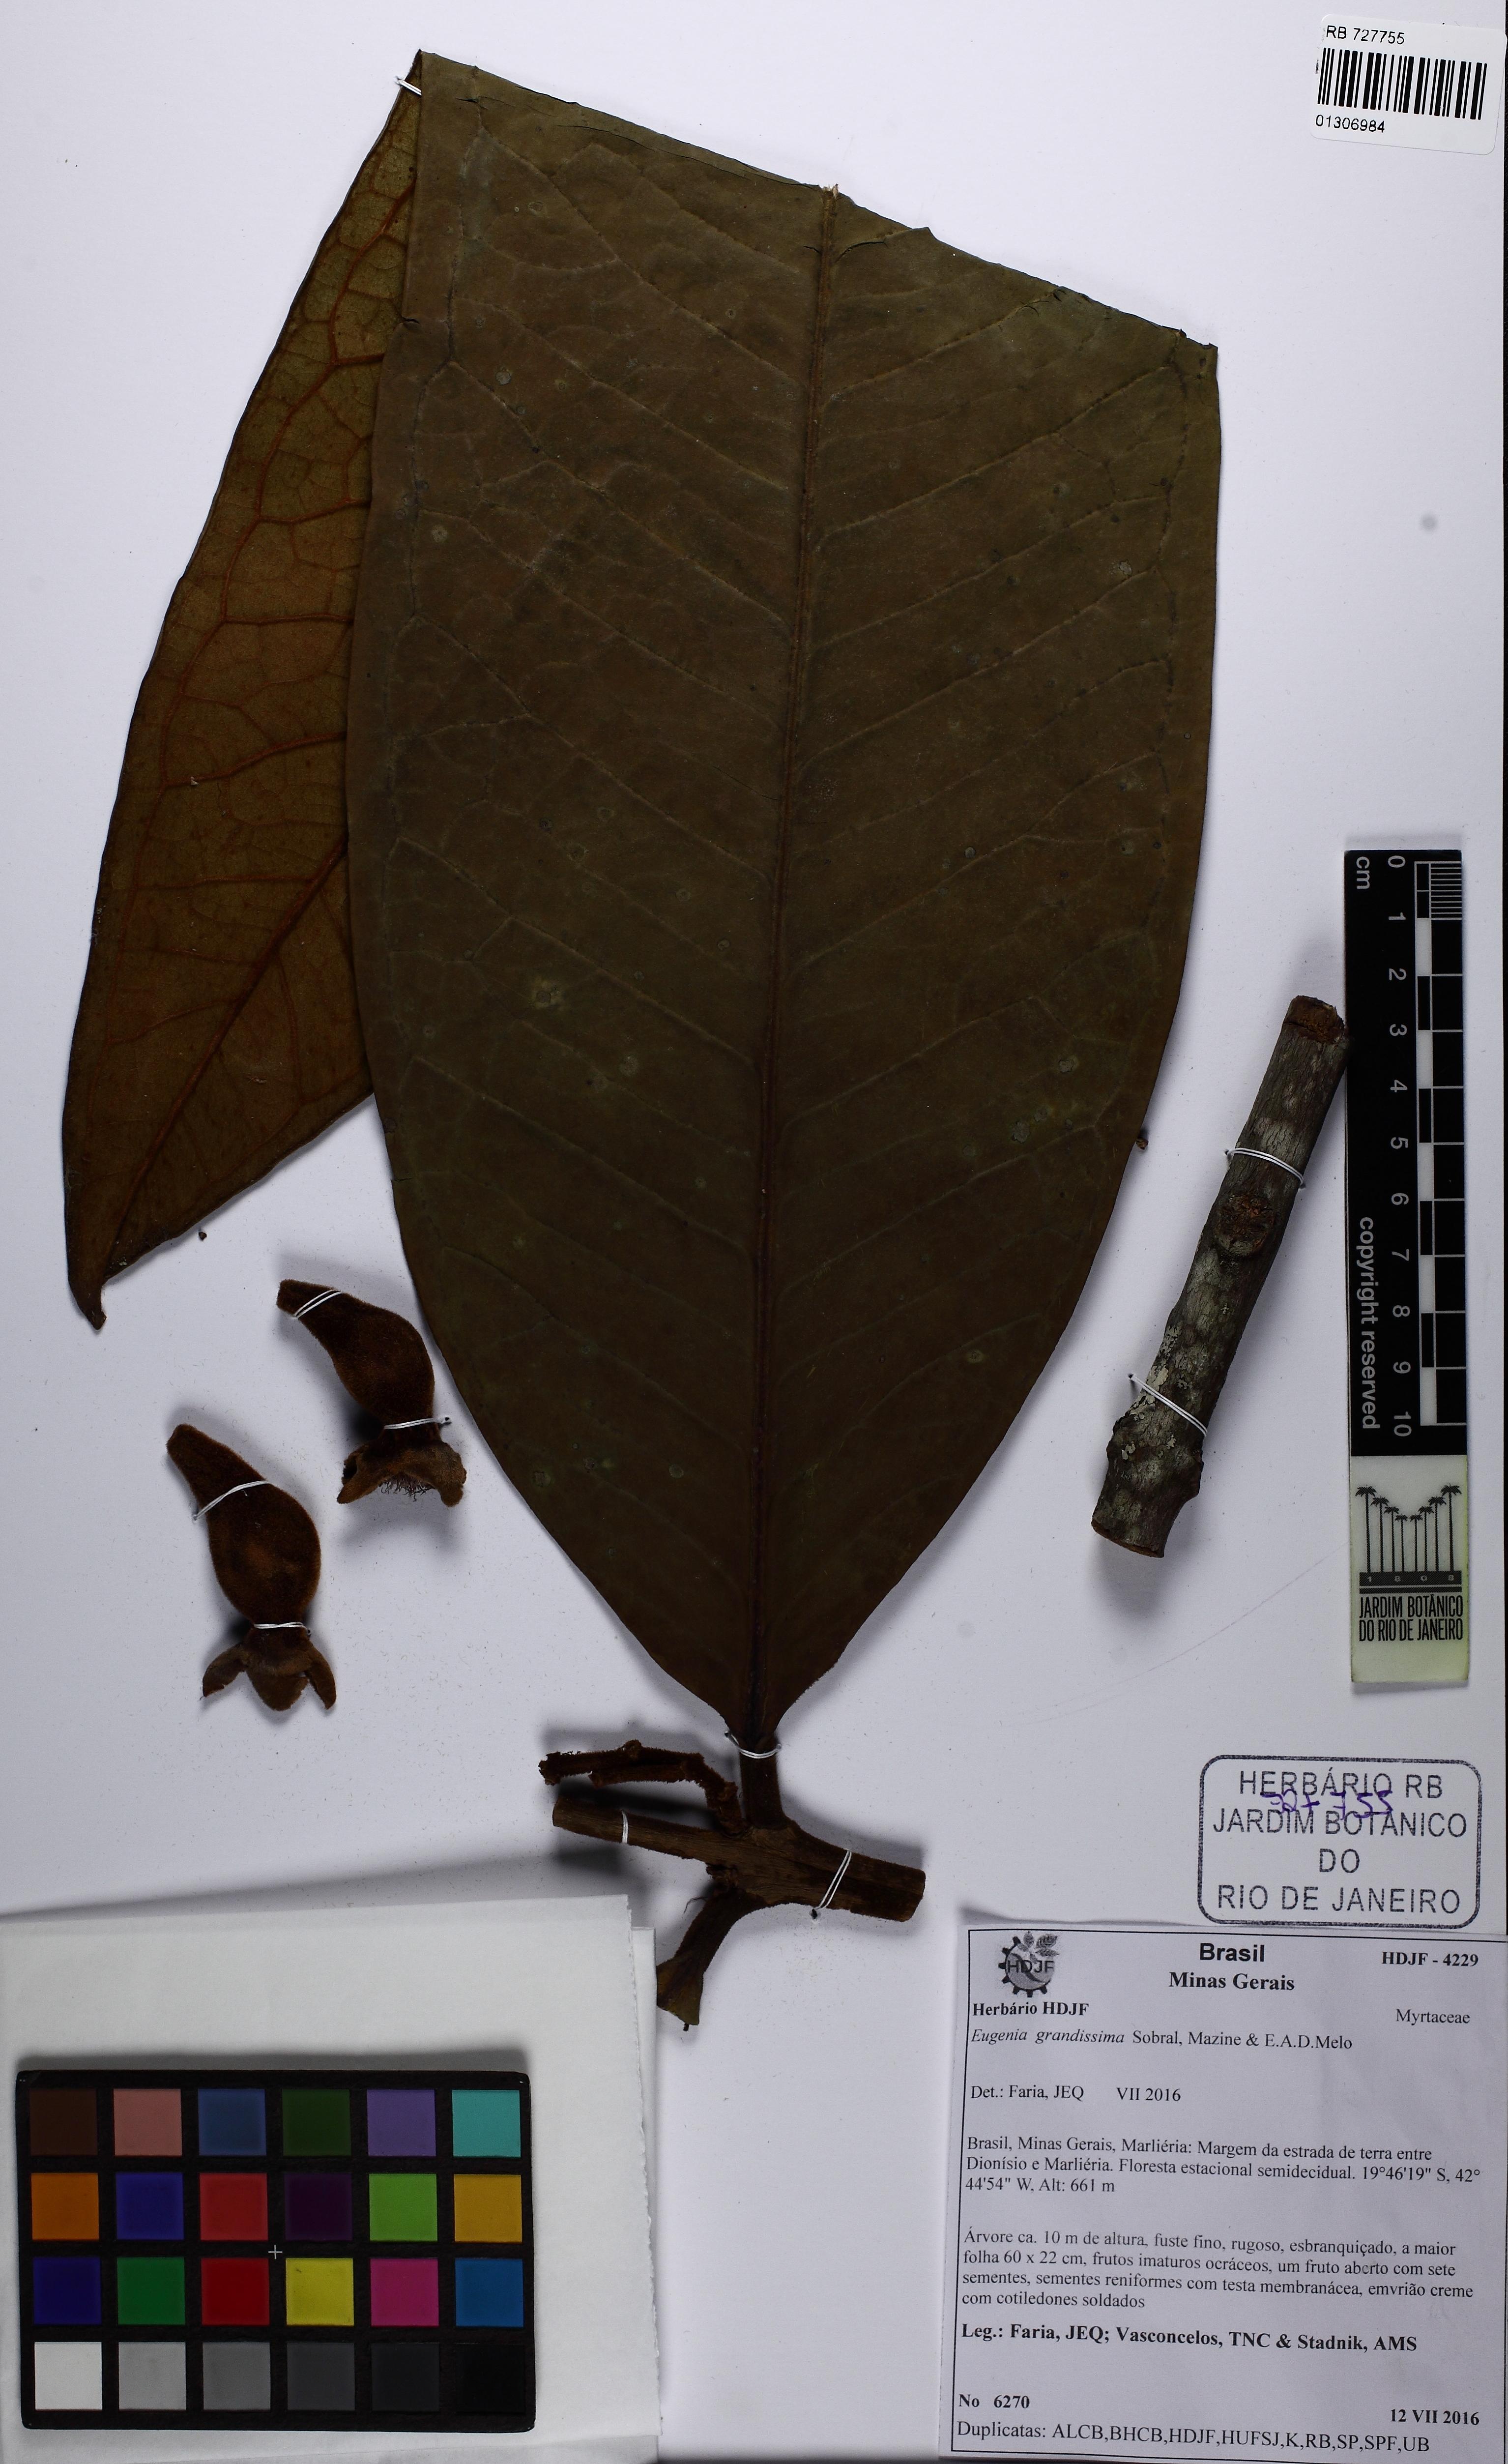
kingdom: Plantae
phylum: Tracheophyta
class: Magnoliopsida
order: Myrtales
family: Myrtaceae
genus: Eugenia
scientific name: Eugenia grandissima
